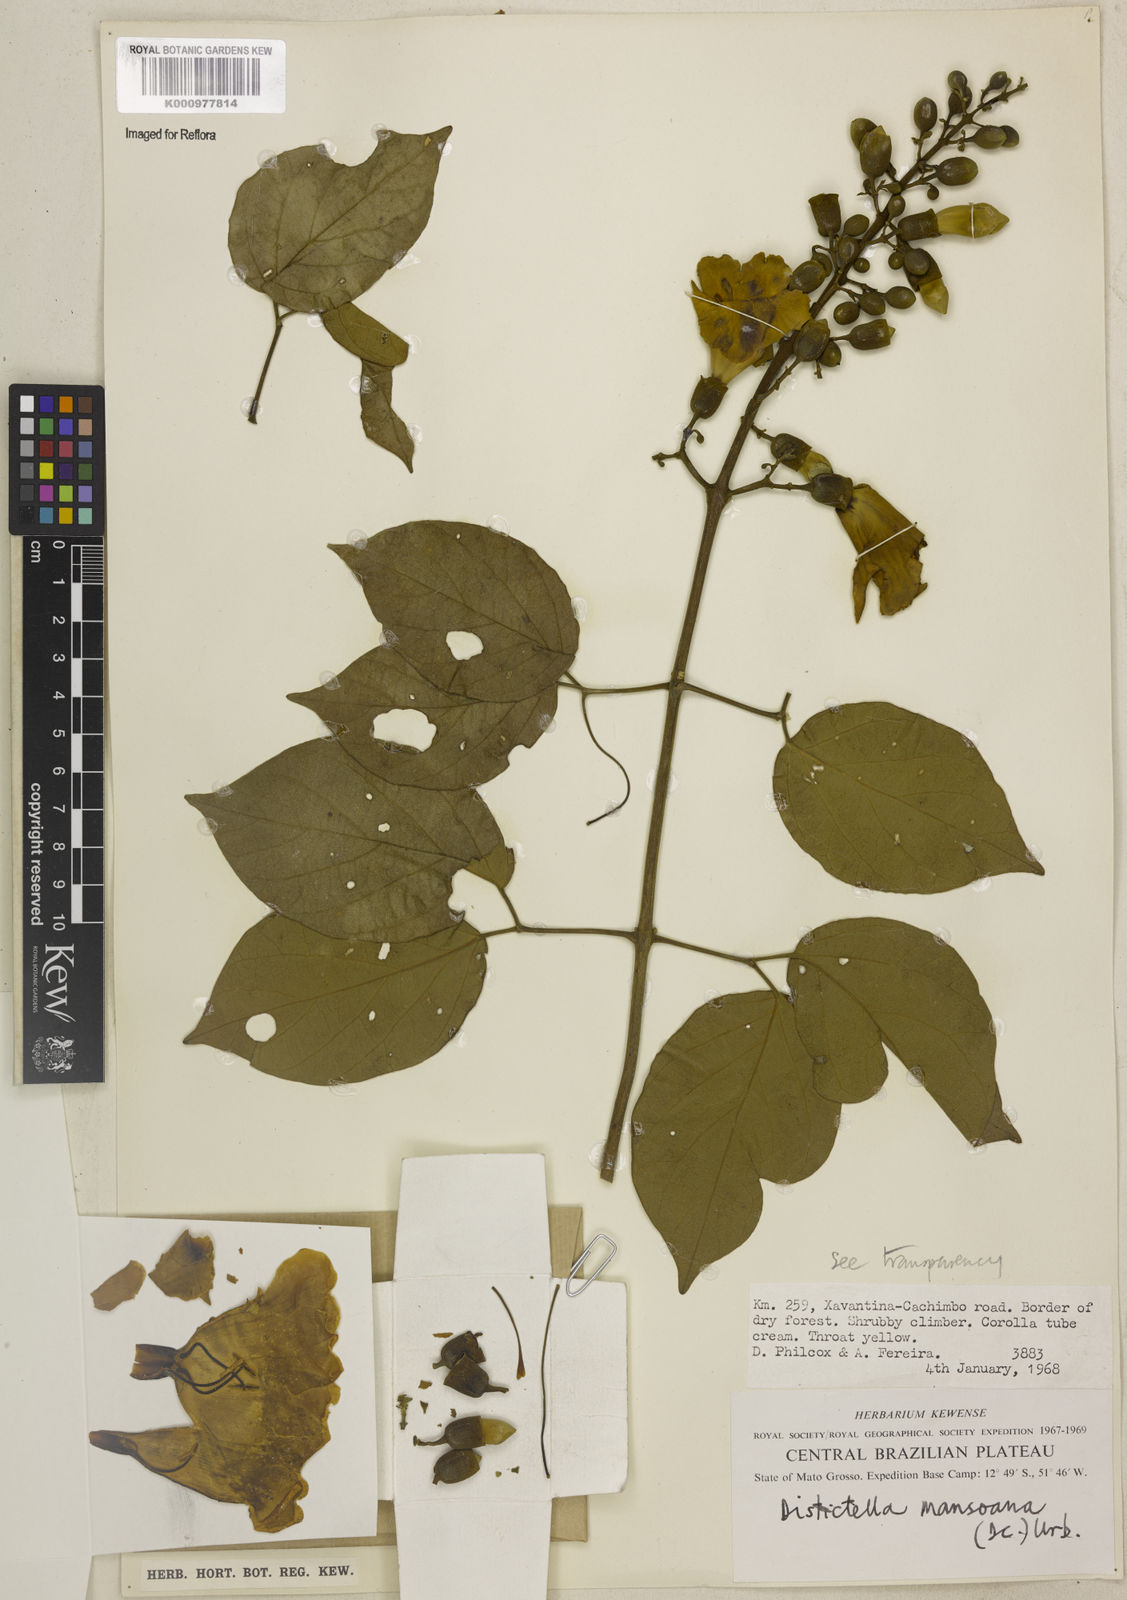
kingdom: Plantae
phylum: Tracheophyta
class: Magnoliopsida
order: Lamiales
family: Bignoniaceae
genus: Amphilophium
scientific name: Amphilophium mansoanum
